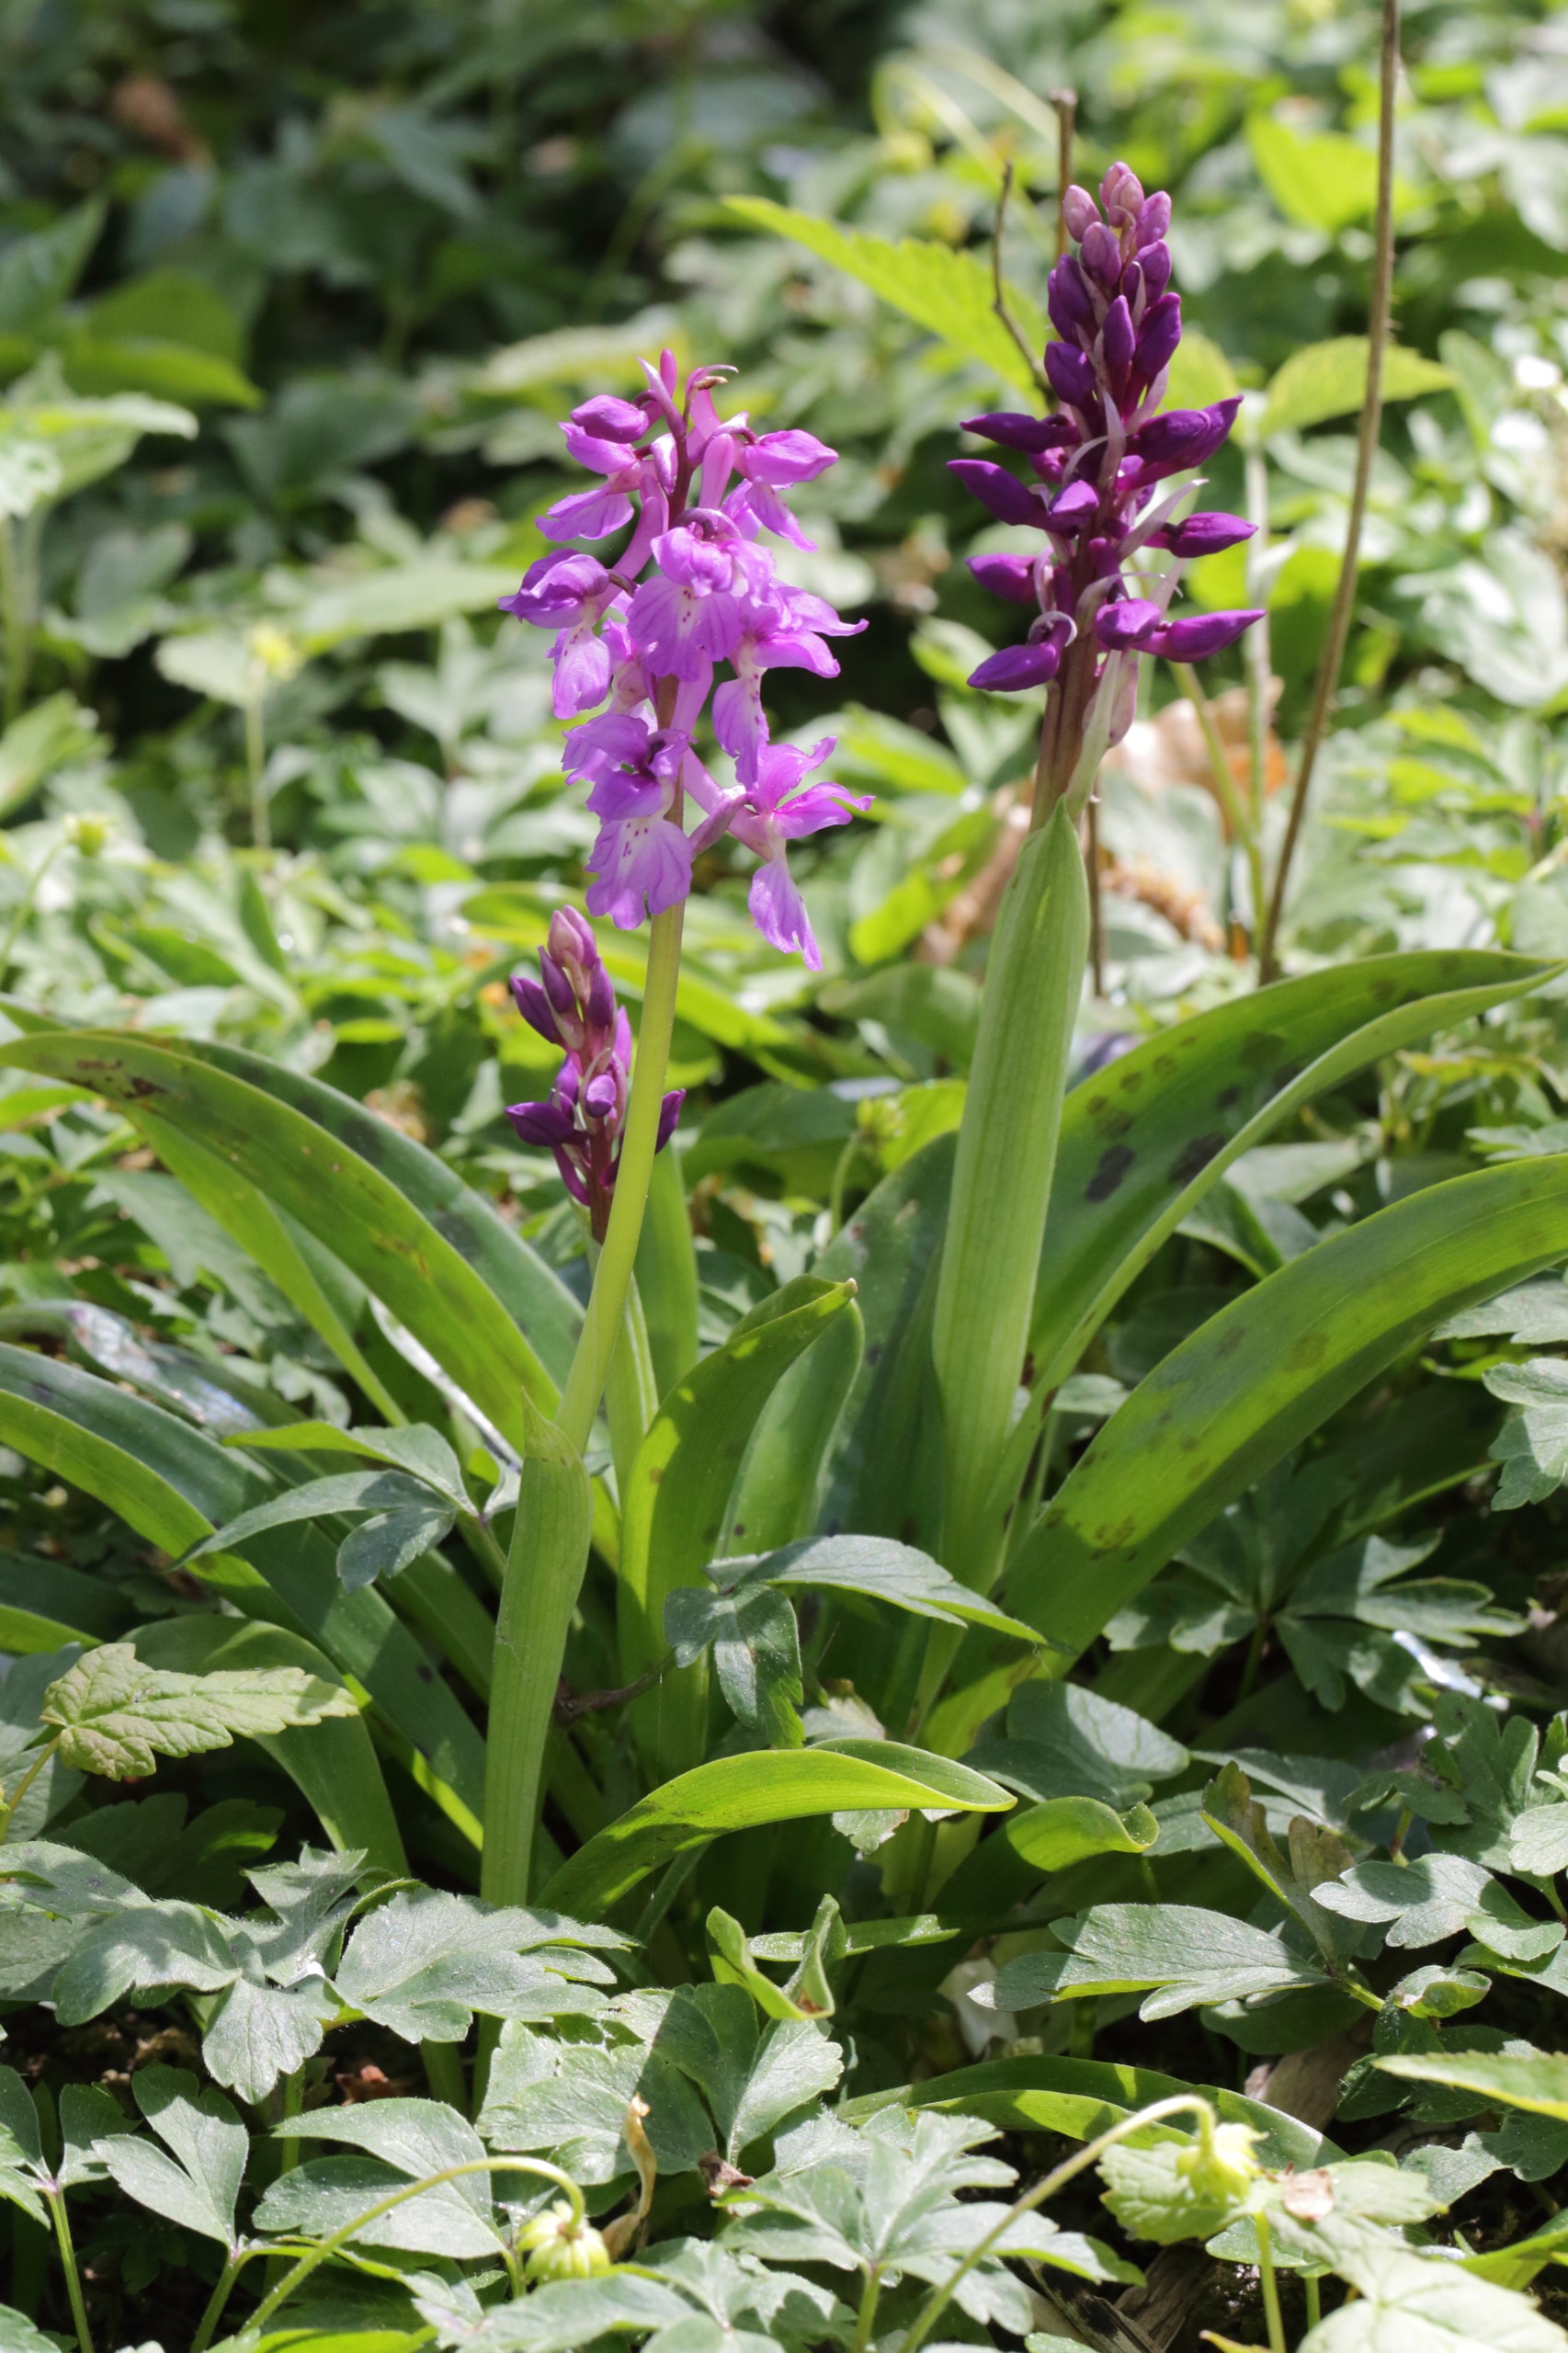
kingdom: Plantae
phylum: Tracheophyta
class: Liliopsida
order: Asparagales
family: Orchidaceae
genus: Orchis
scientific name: Orchis mascula
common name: Tyndakset gøgeurt
